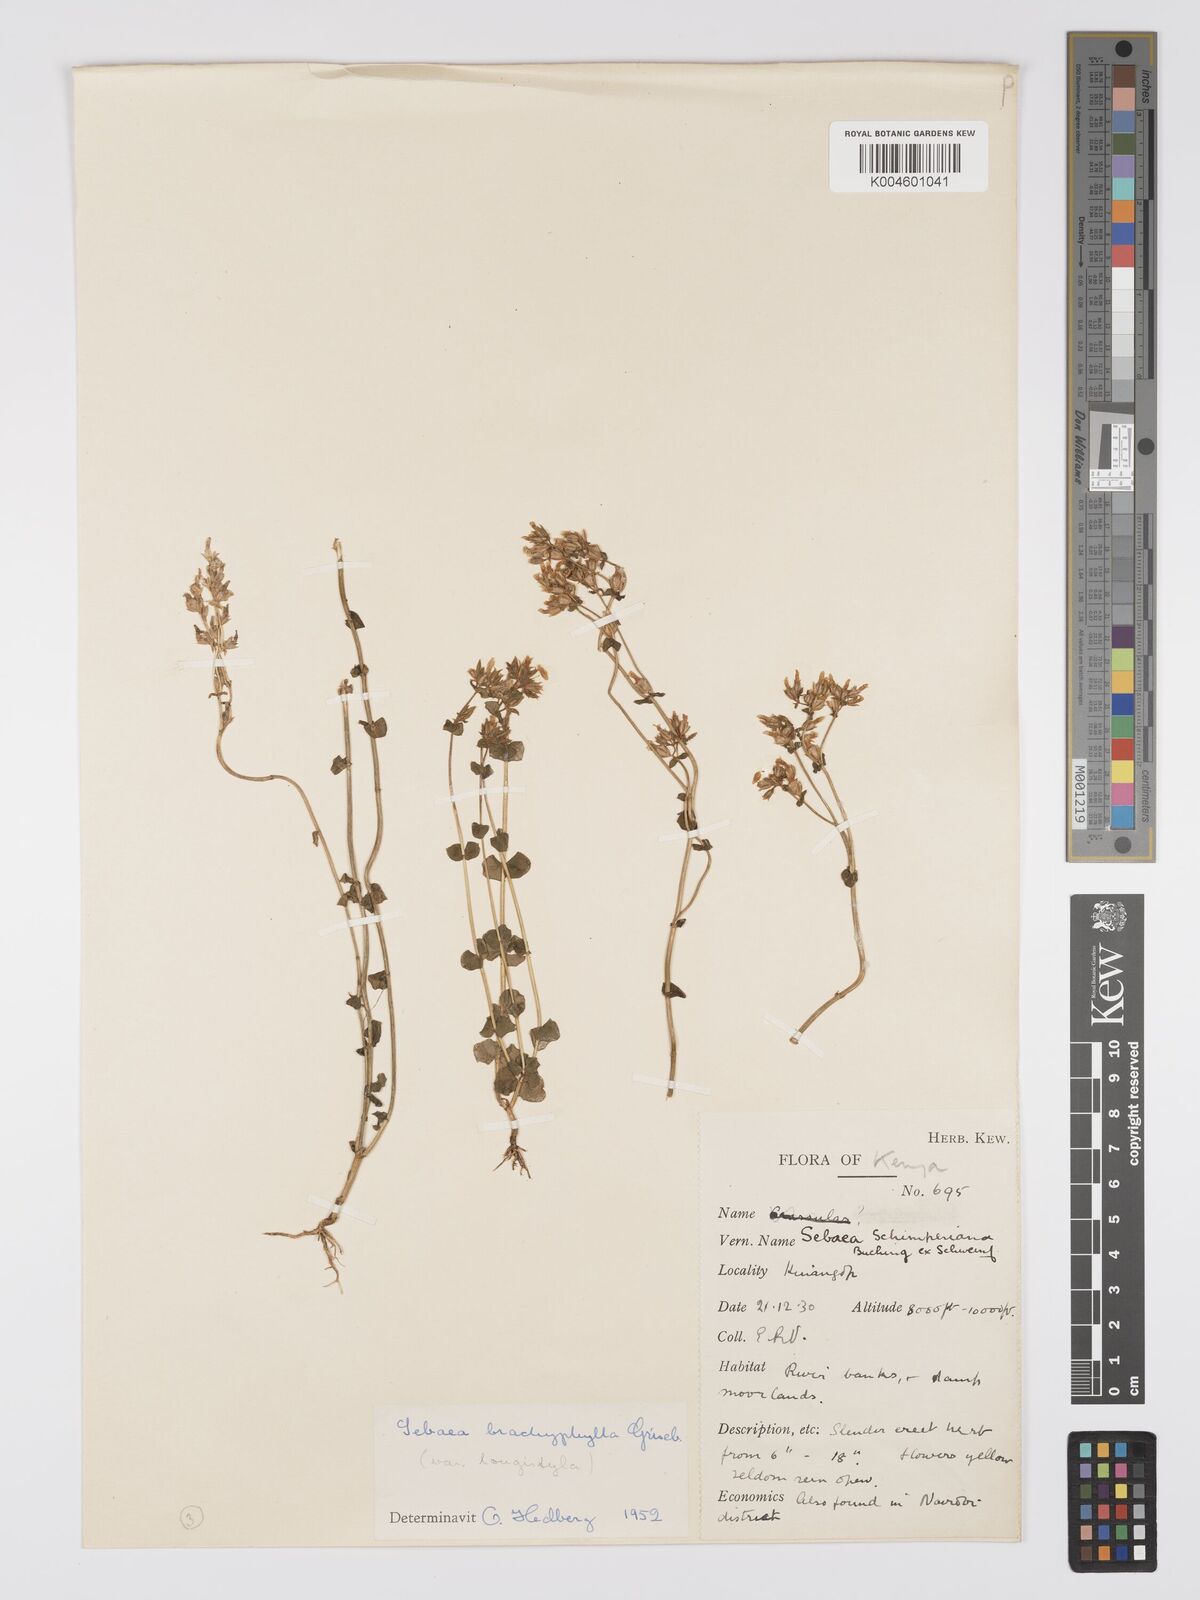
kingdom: Plantae
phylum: Tracheophyta
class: Magnoliopsida
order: Gentianales
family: Gentianaceae
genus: Sebaea
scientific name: Sebaea brachyphylla
